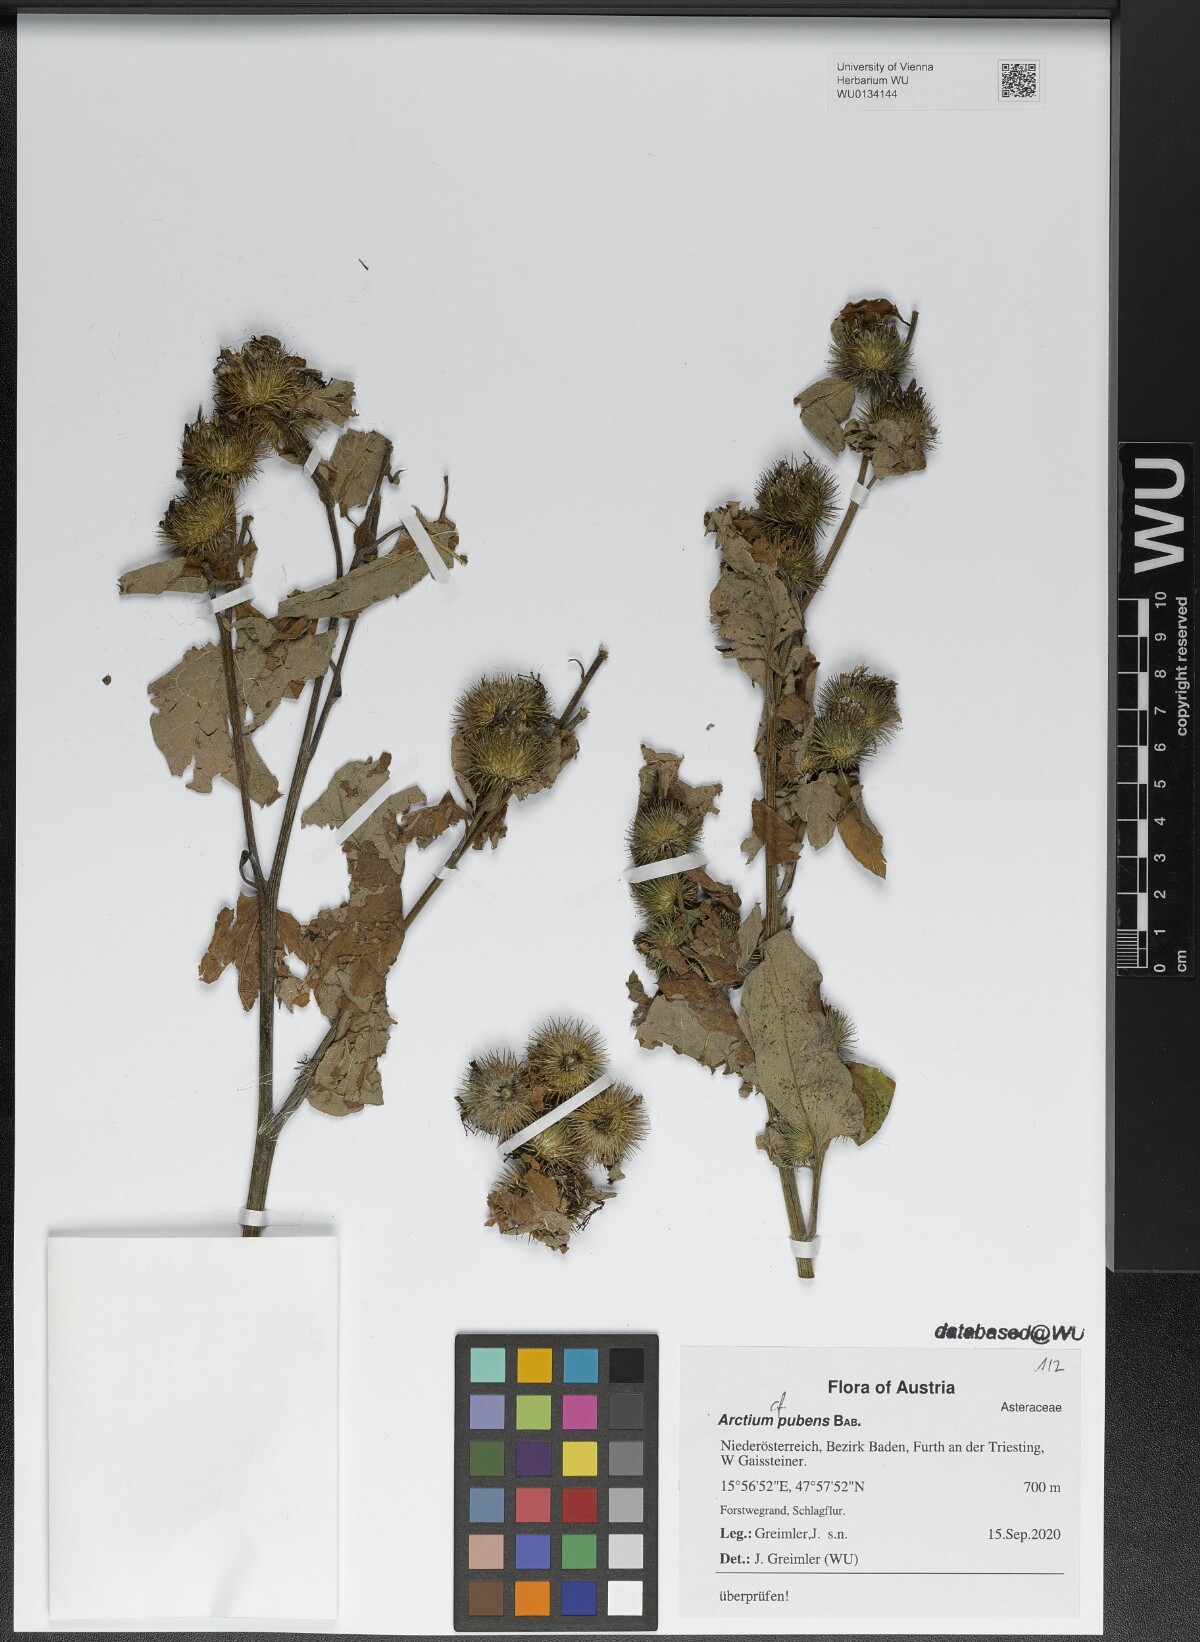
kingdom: Plantae
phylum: Tracheophyta
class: Magnoliopsida
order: Asterales
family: Asteraceae
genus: Arctium
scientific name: Arctium minus
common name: Lesser burdock
